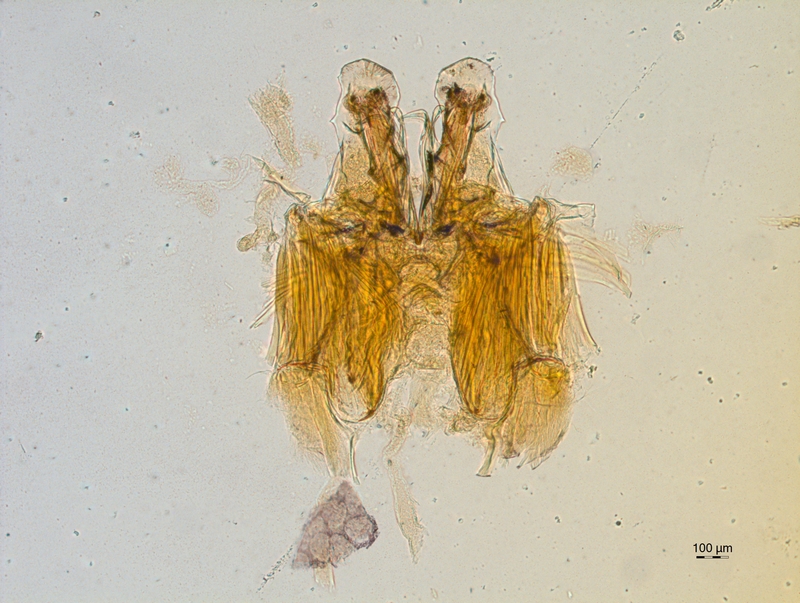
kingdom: Animalia
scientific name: Animalia
